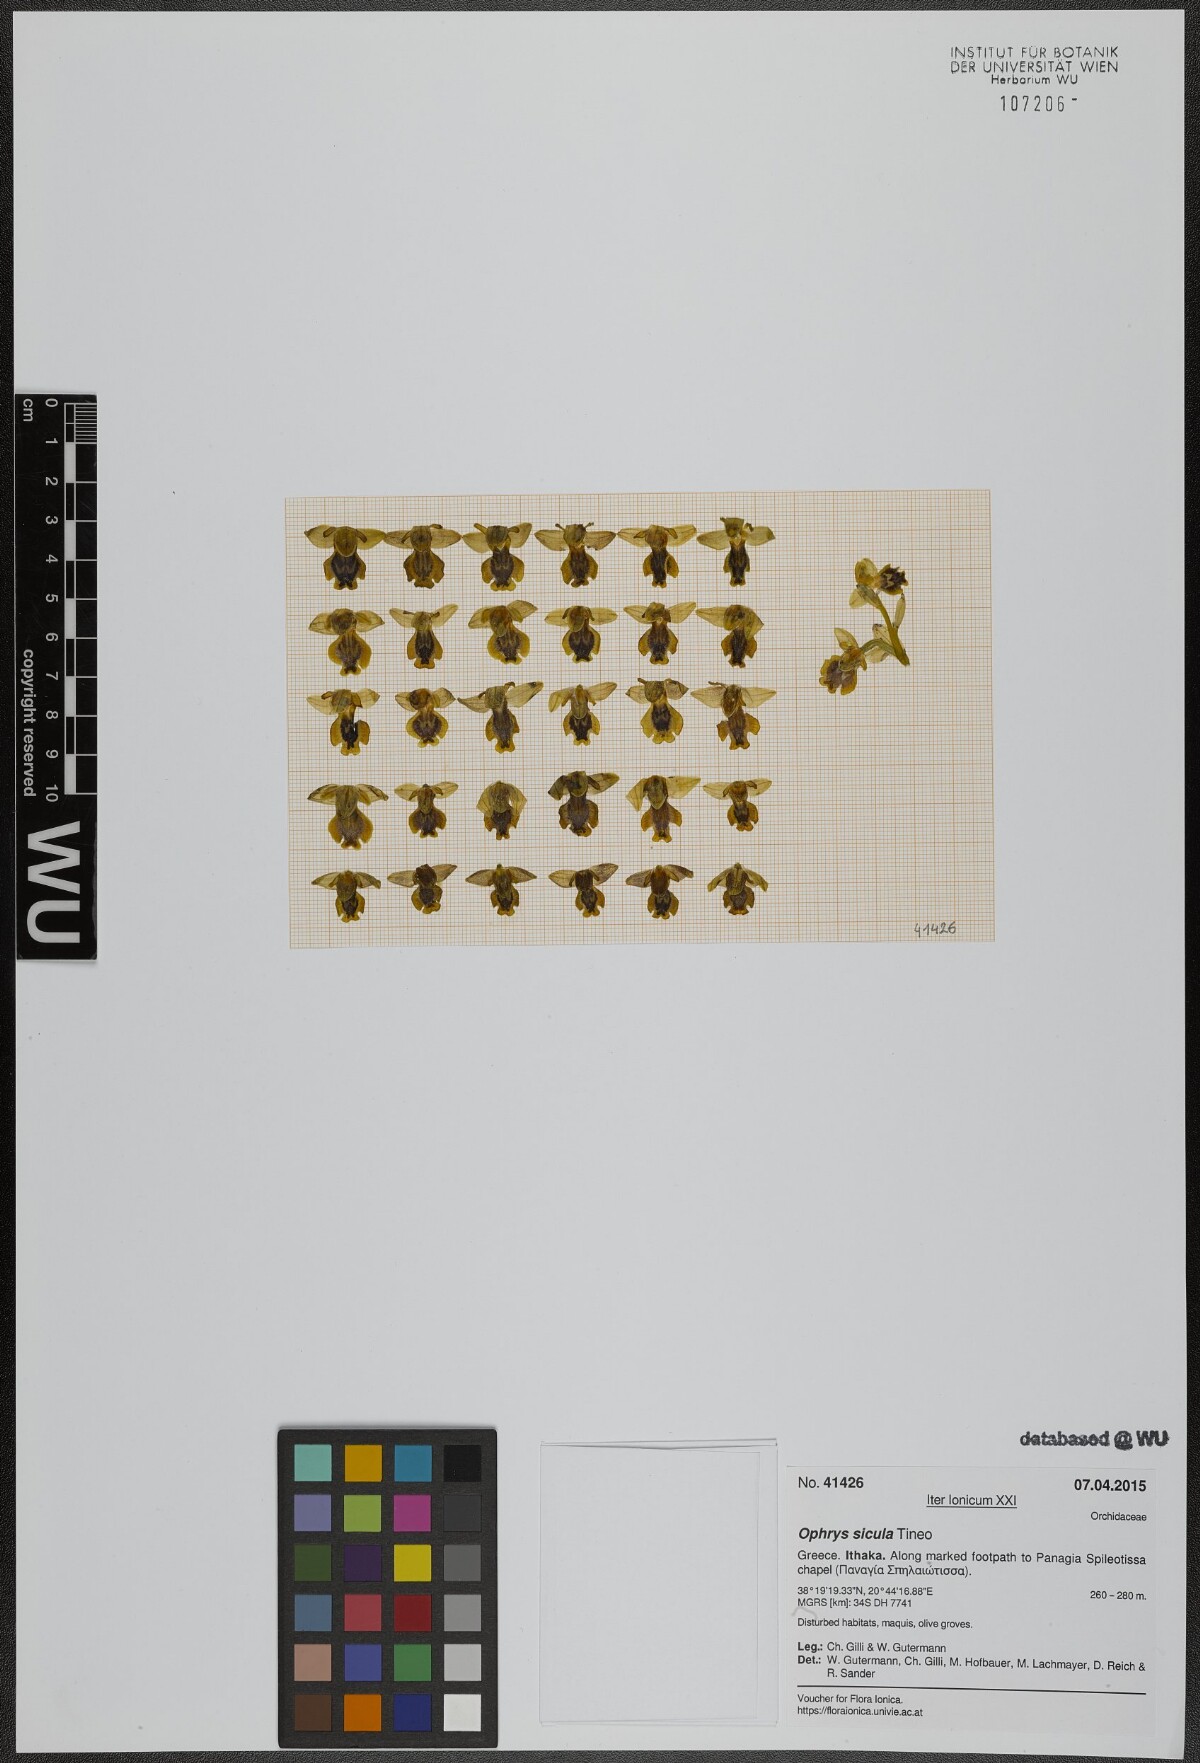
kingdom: Plantae
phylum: Tracheophyta
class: Liliopsida
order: Asparagales
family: Orchidaceae
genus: Ophrys
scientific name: Ophrys lutea
